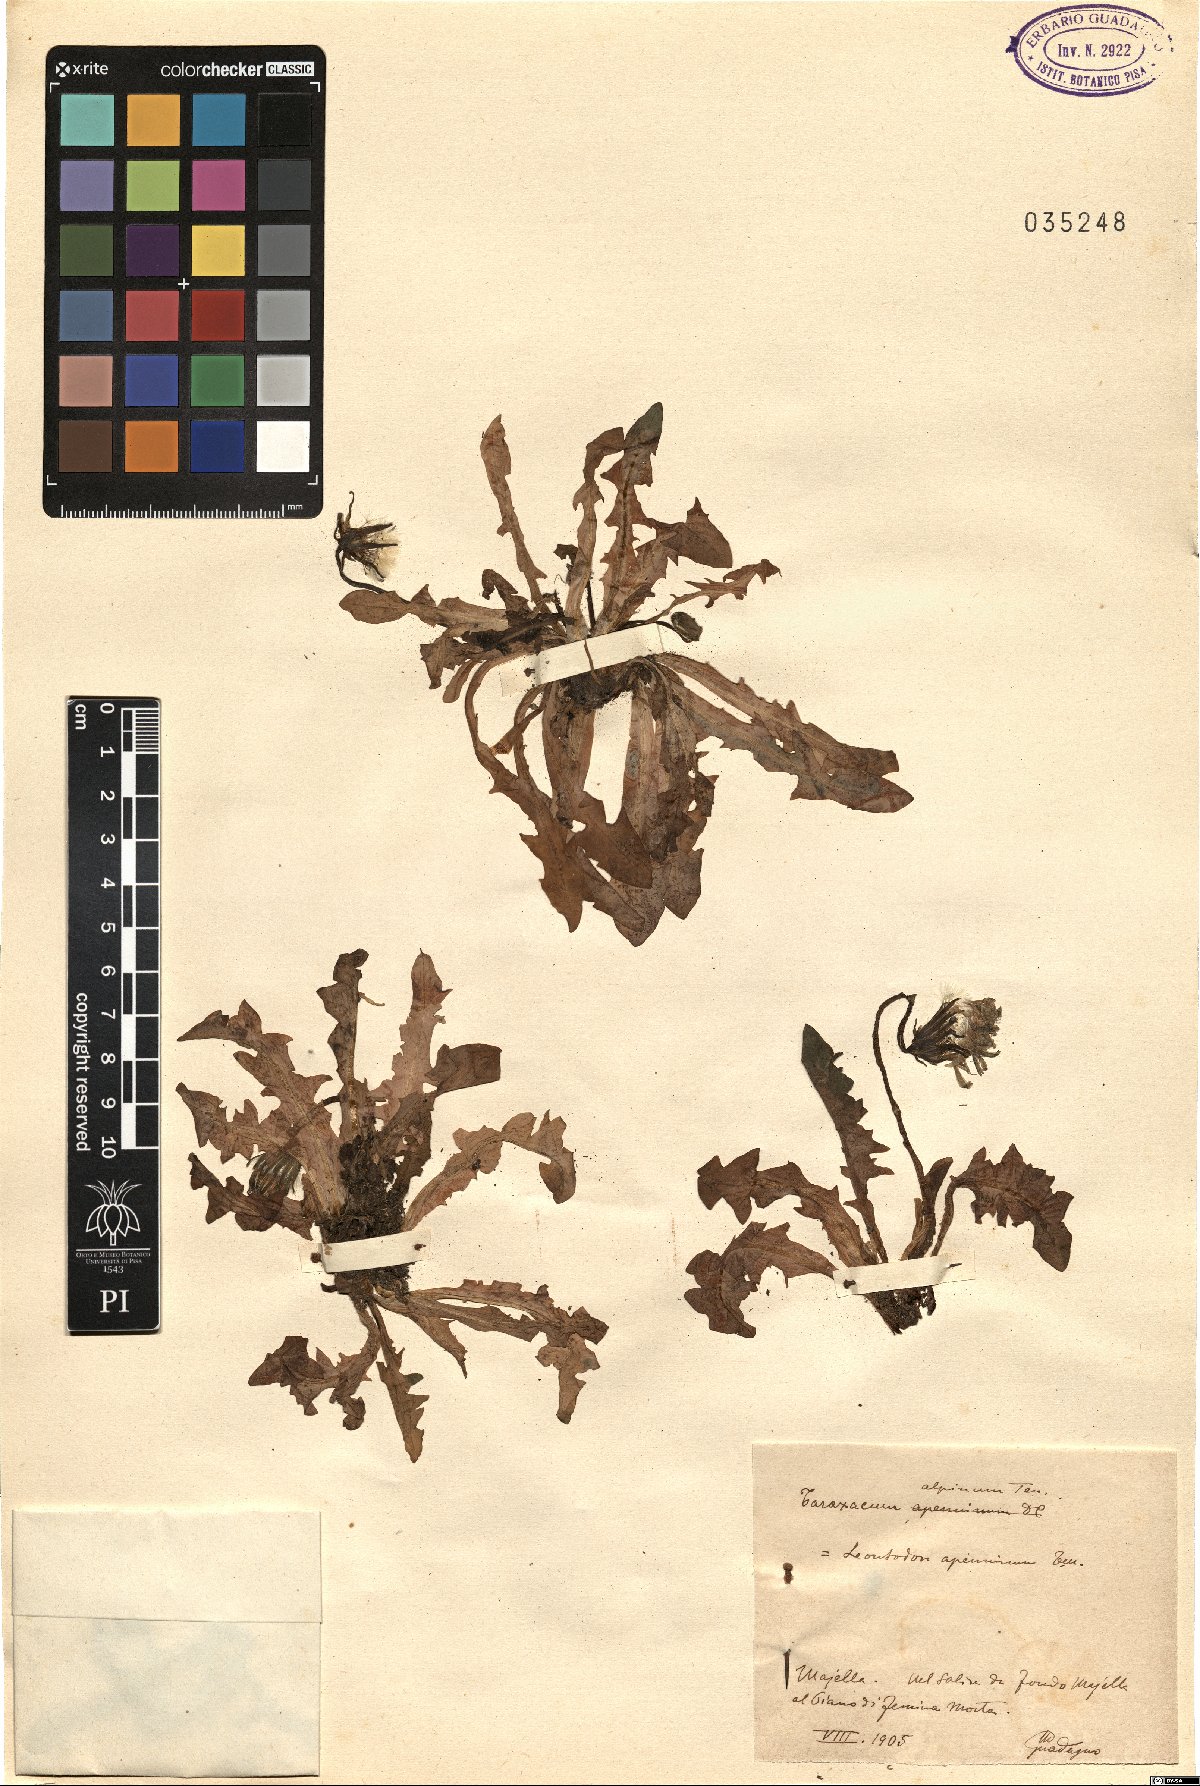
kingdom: Plantae
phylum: Tracheophyta
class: Magnoliopsida
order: Asterales
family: Asteraceae
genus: Taraxacum
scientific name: Taraxacum alpinum
